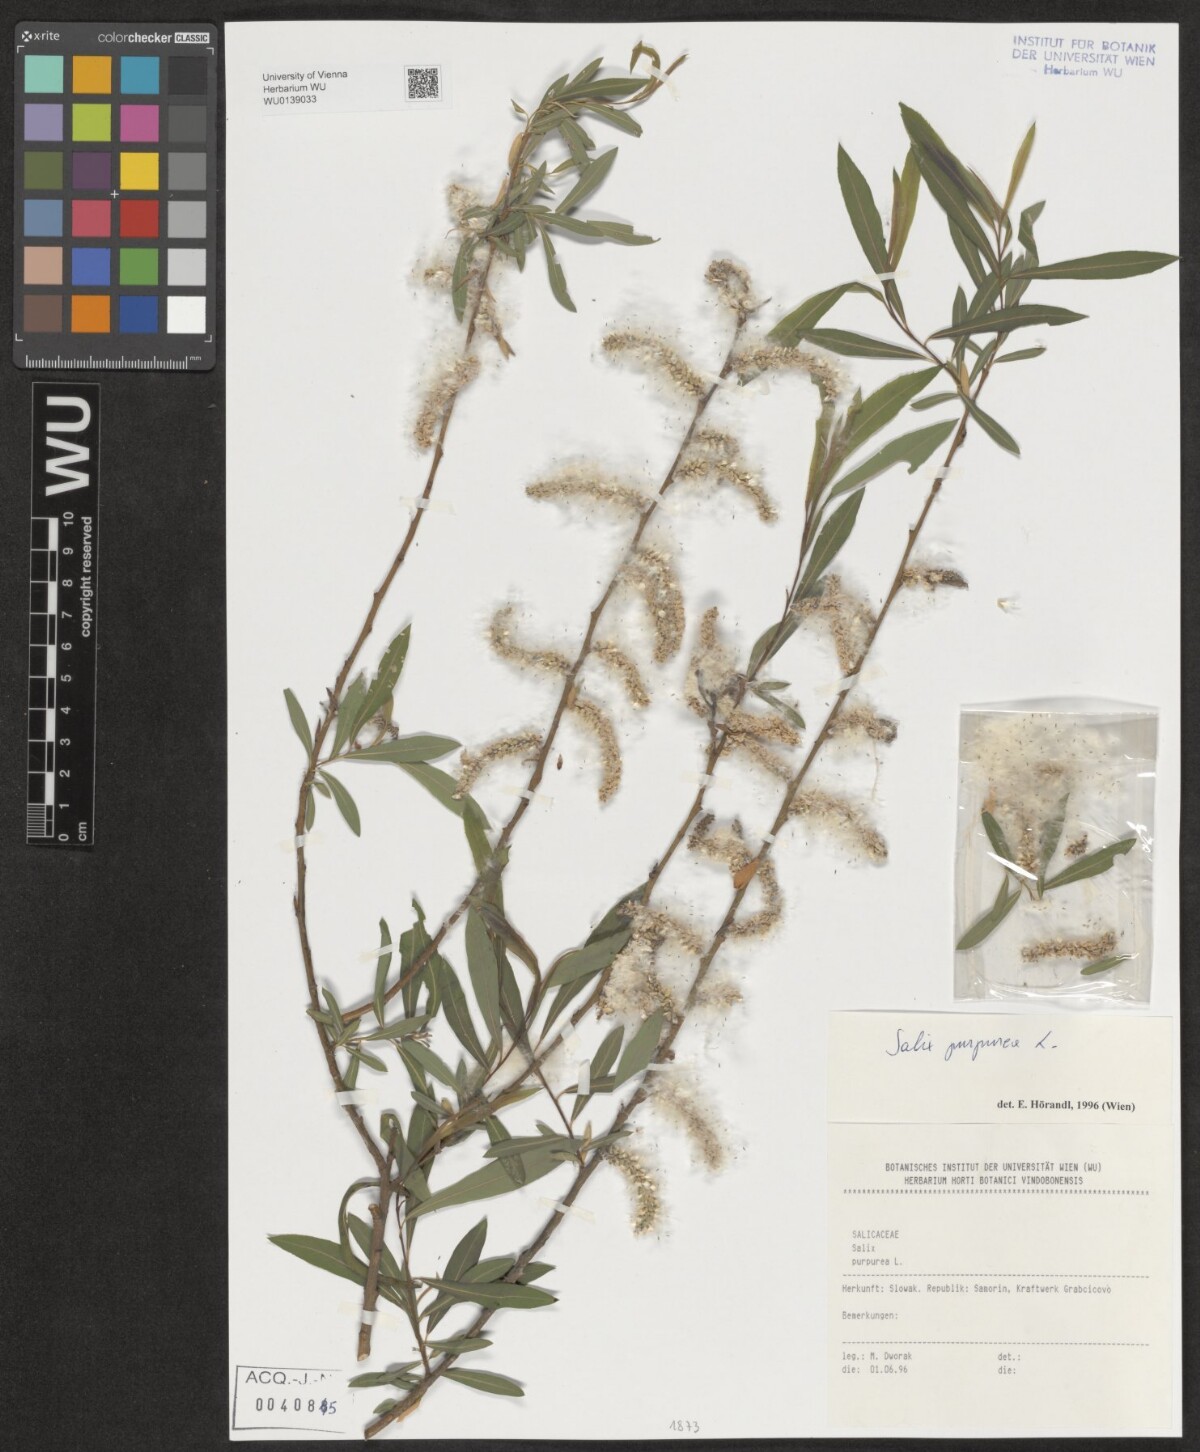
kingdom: Plantae
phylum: Tracheophyta
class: Magnoliopsida
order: Malpighiales
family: Salicaceae
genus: Salix
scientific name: Salix purpurea
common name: Purple willow
